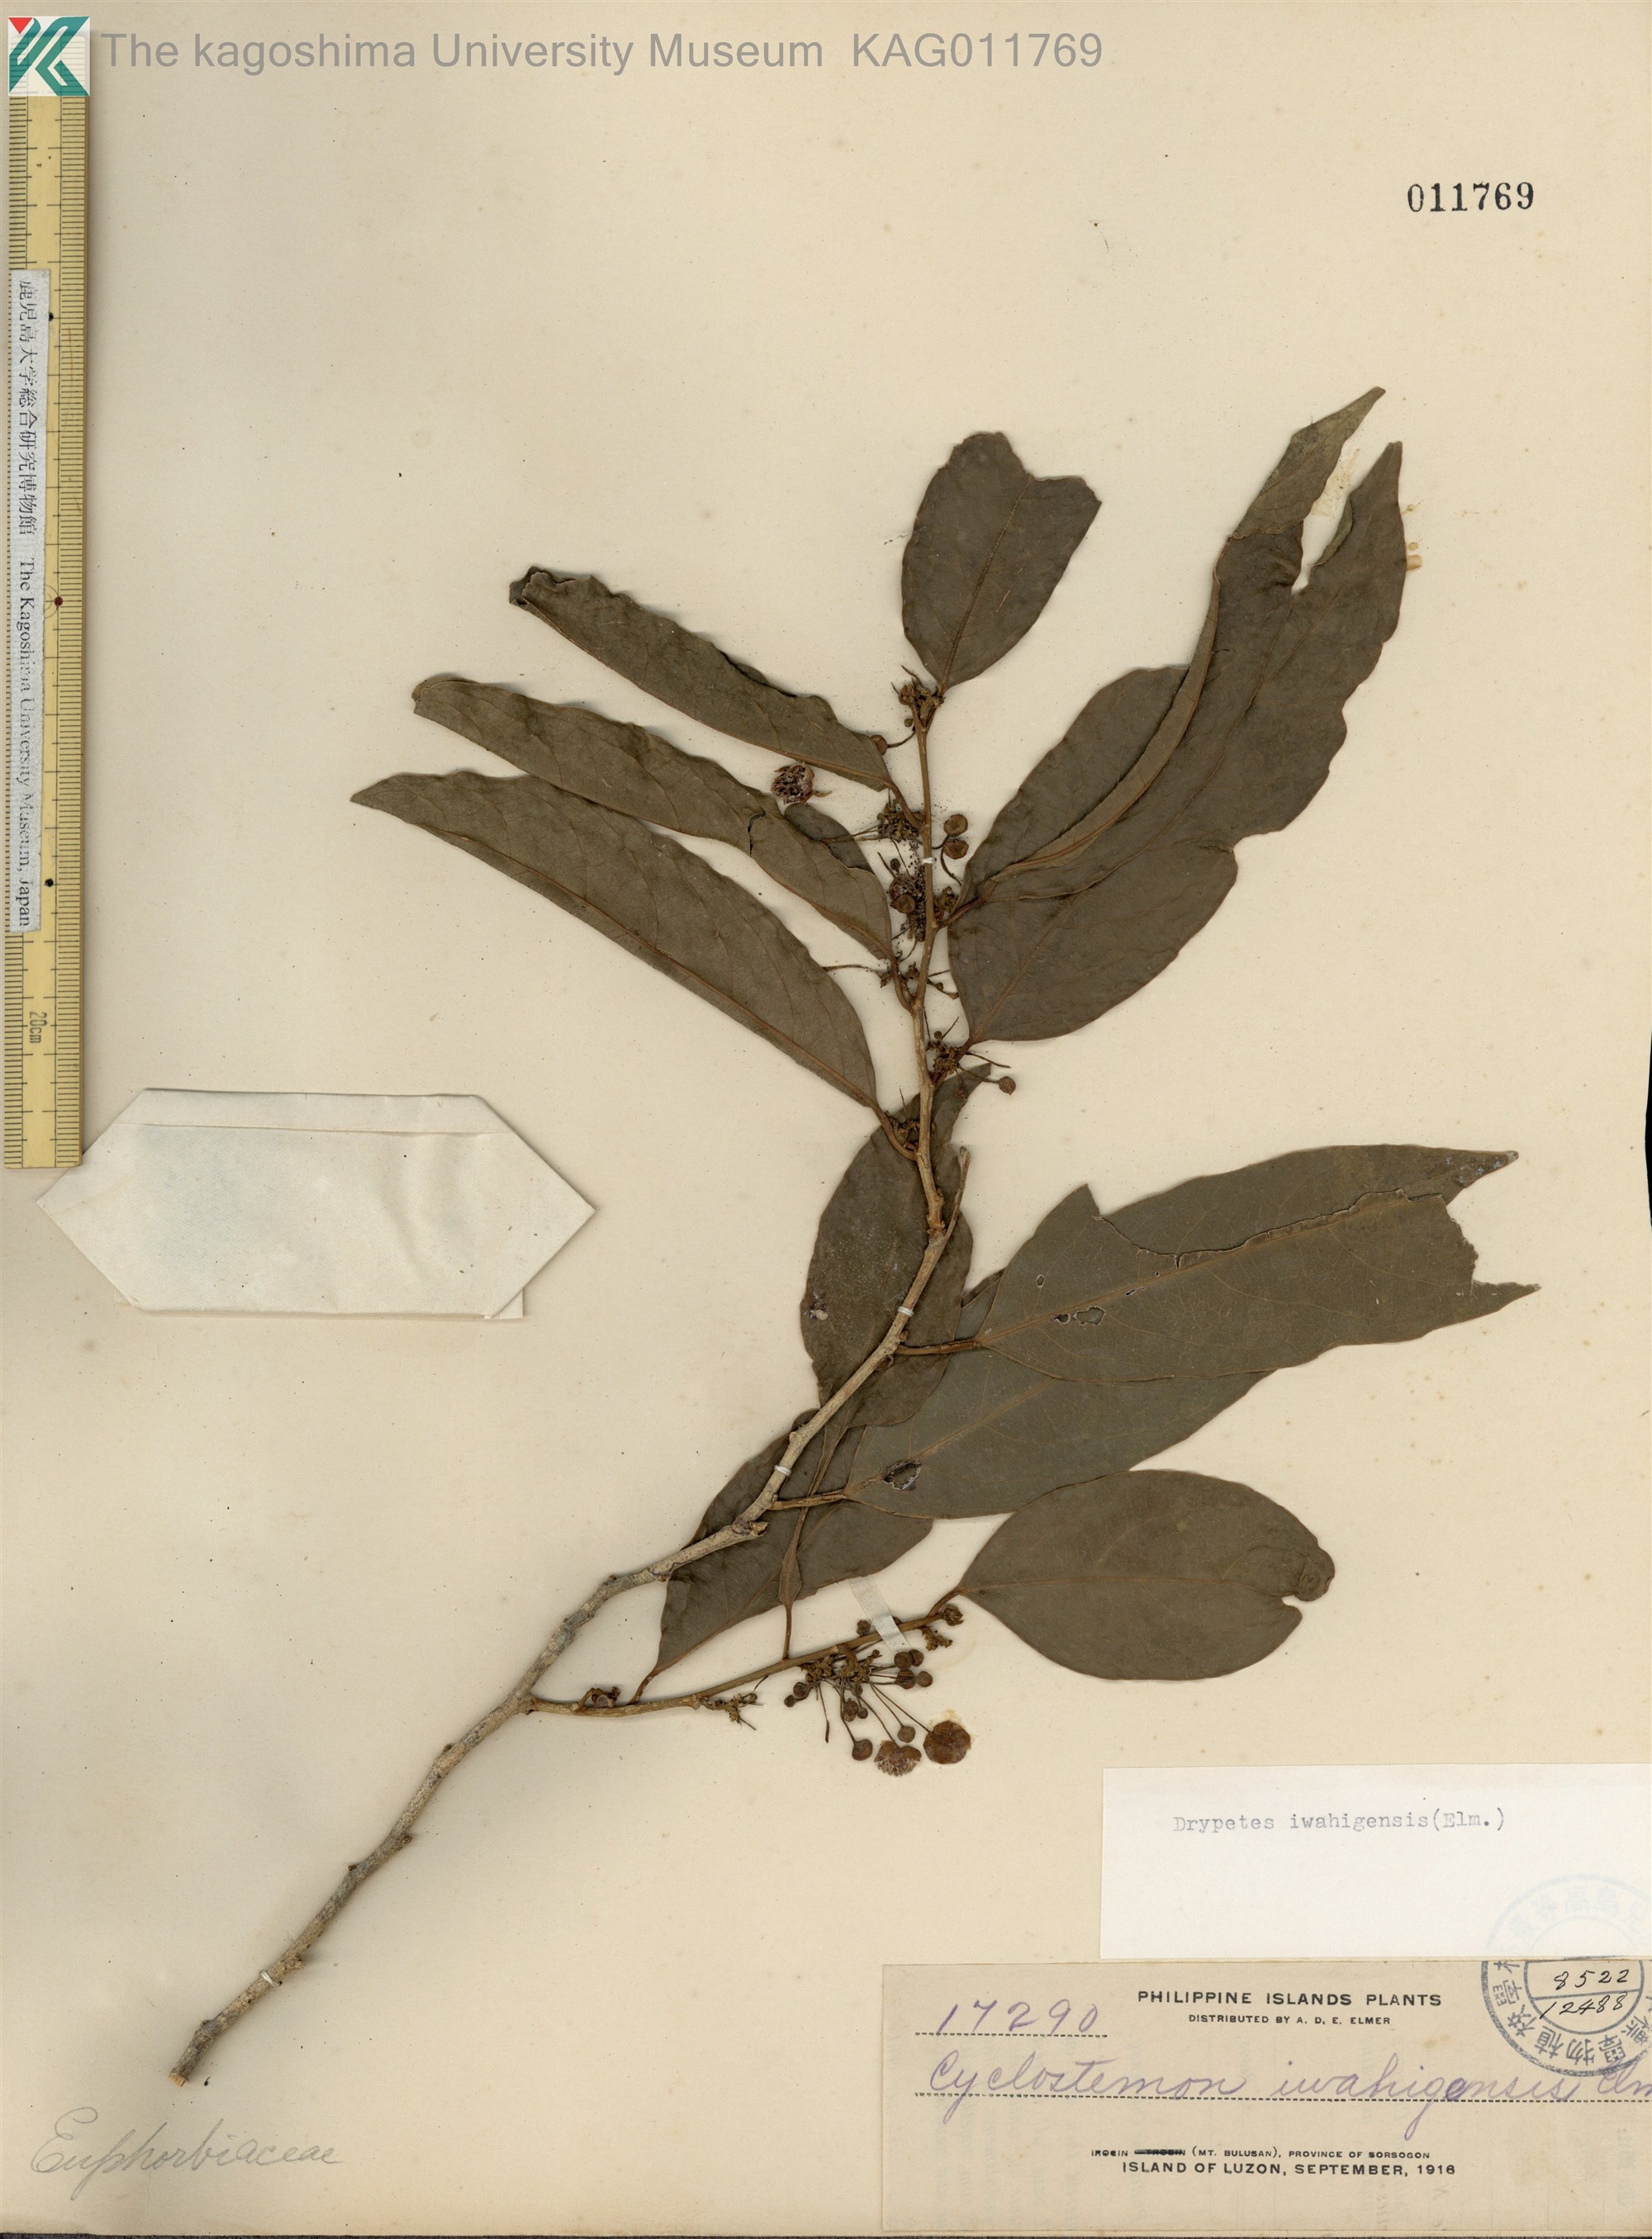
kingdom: Plantae
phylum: Tracheophyta
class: Magnoliopsida
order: Malpighiales
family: Putranjivaceae
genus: Drypetes
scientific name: Drypetes
